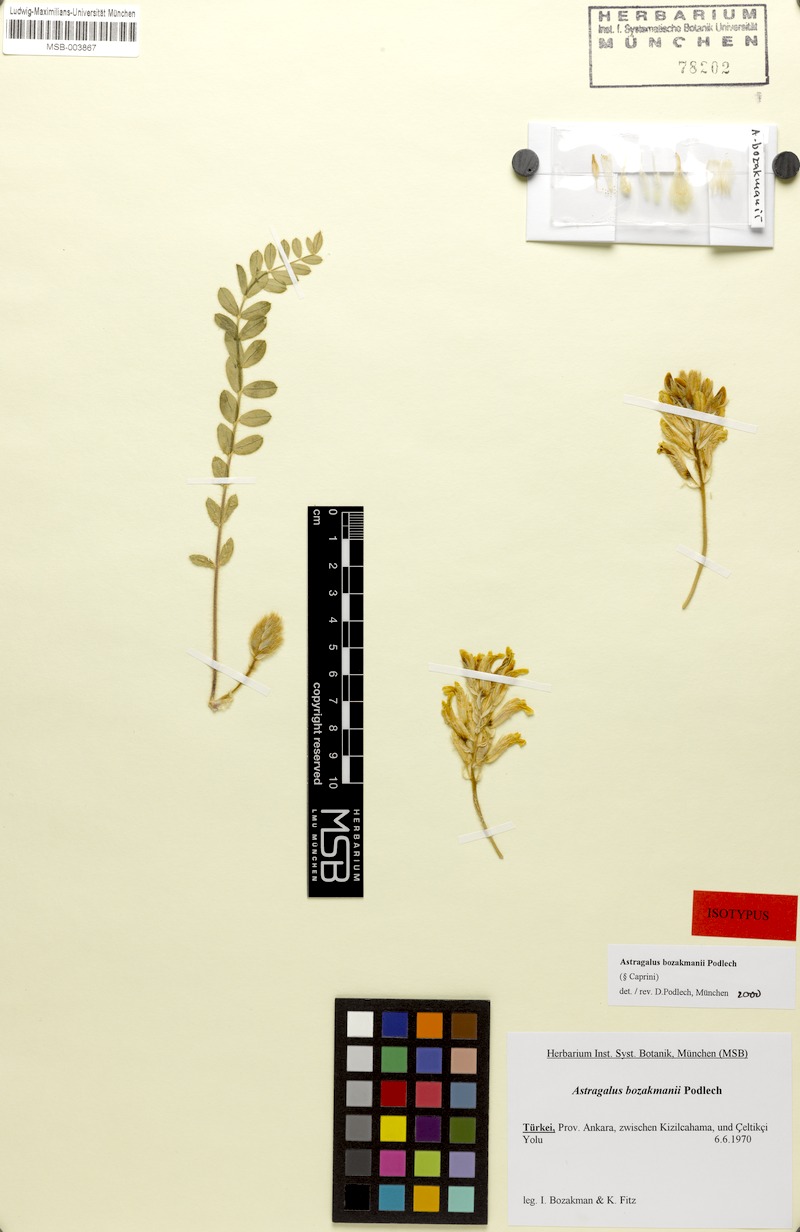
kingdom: Plantae
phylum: Tracheophyta
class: Magnoliopsida
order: Fabales
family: Fabaceae
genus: Astragalus
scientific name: Astragalus bozakmanii
